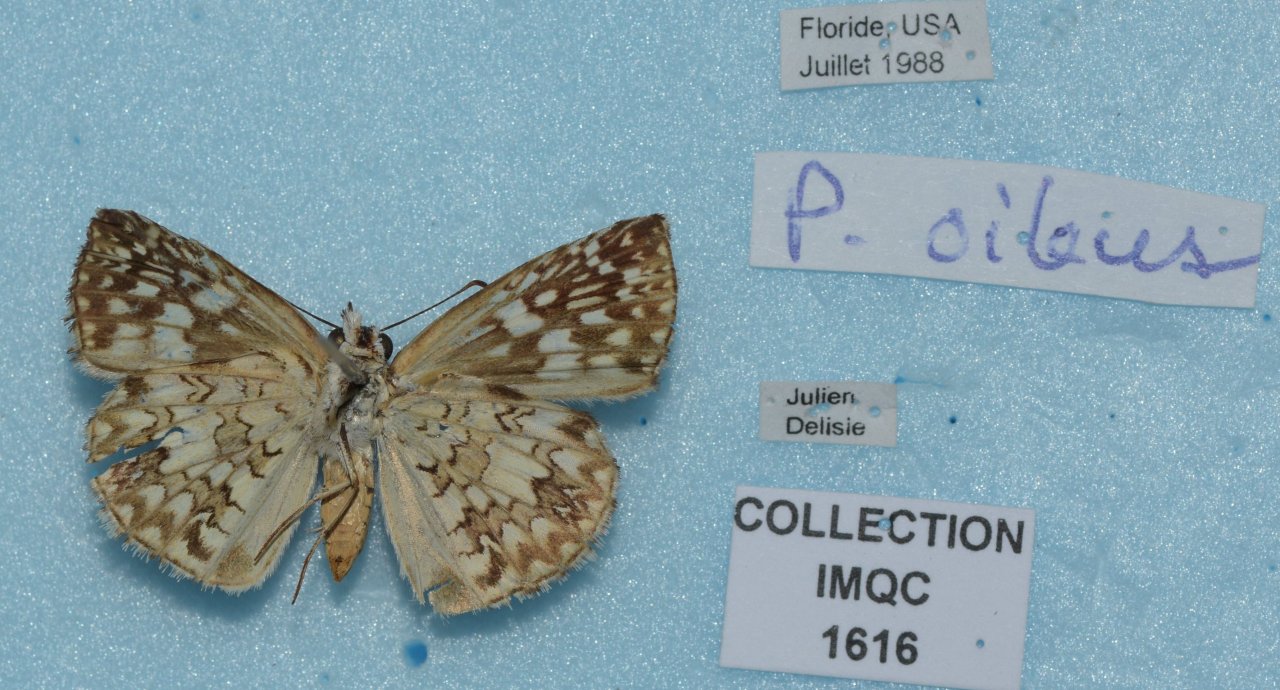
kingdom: Animalia
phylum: Arthropoda
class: Insecta
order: Lepidoptera
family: Hesperiidae
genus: Pyrgus
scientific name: Pyrgus oileus
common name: Tropical Checkered-Skipper
